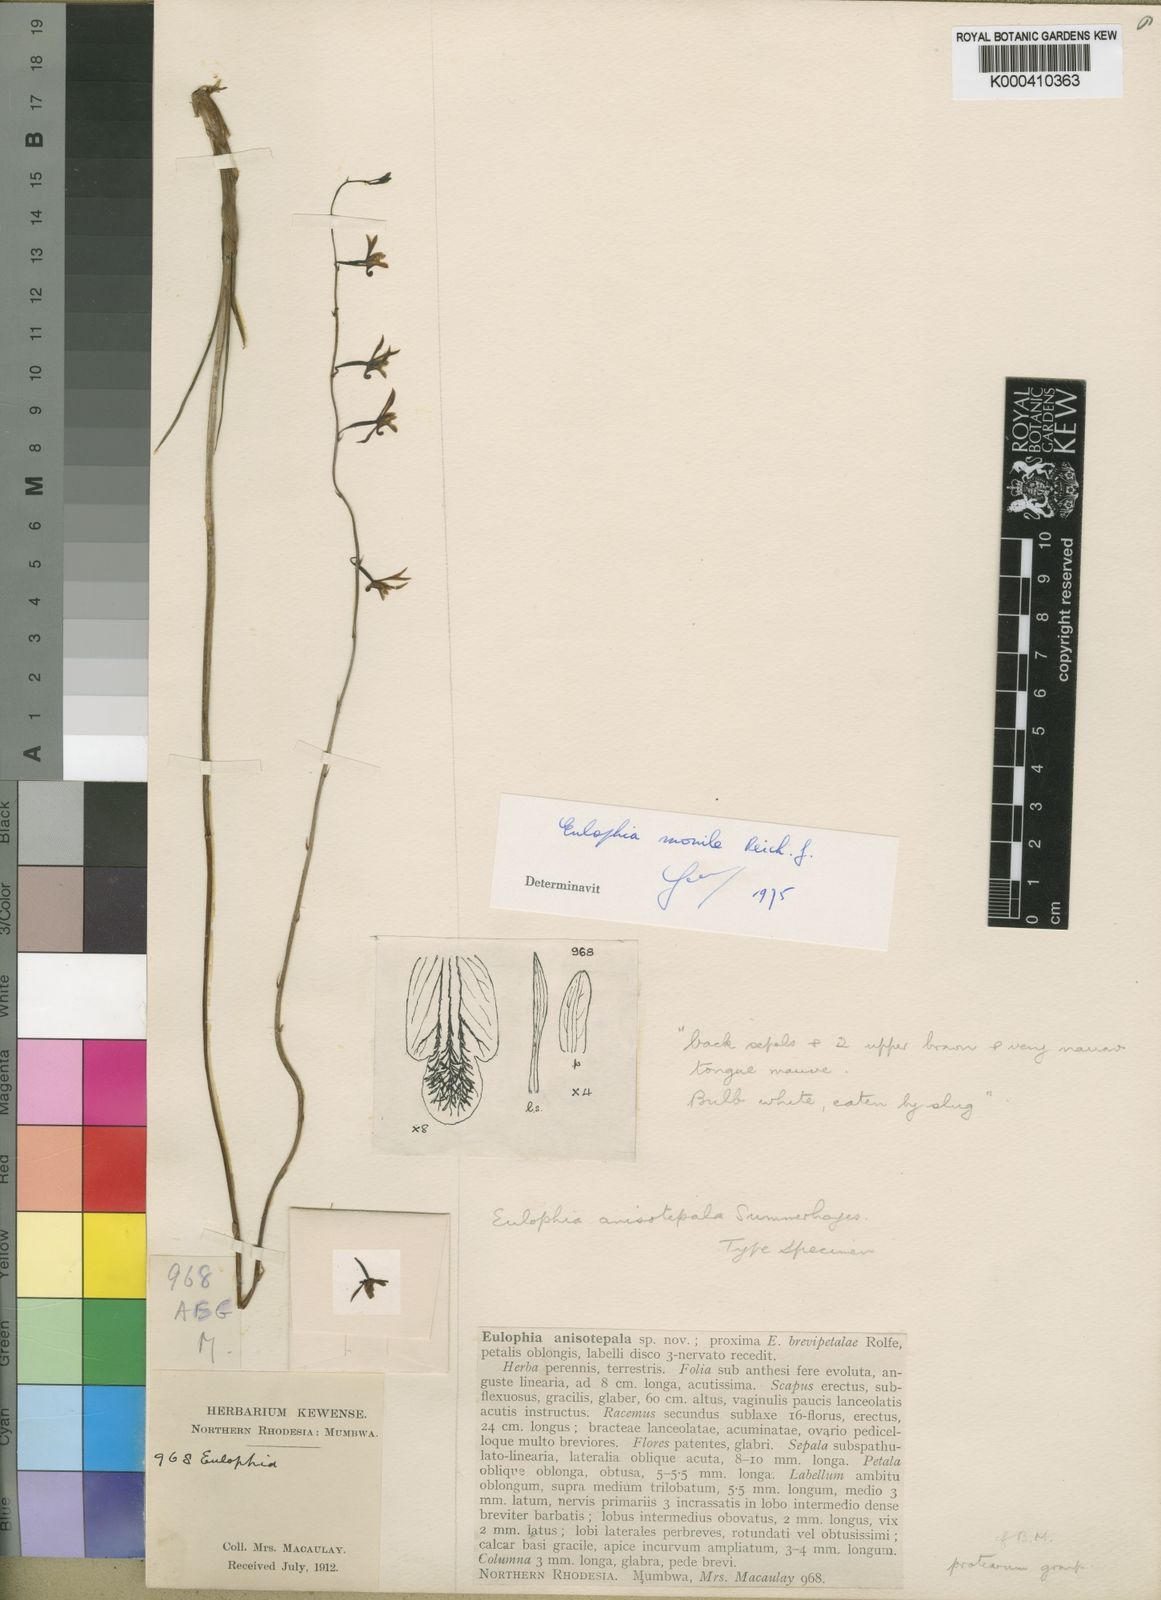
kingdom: Plantae
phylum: Tracheophyta
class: Liliopsida
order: Asparagales
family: Orchidaceae
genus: Eulophia
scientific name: Eulophia monile
